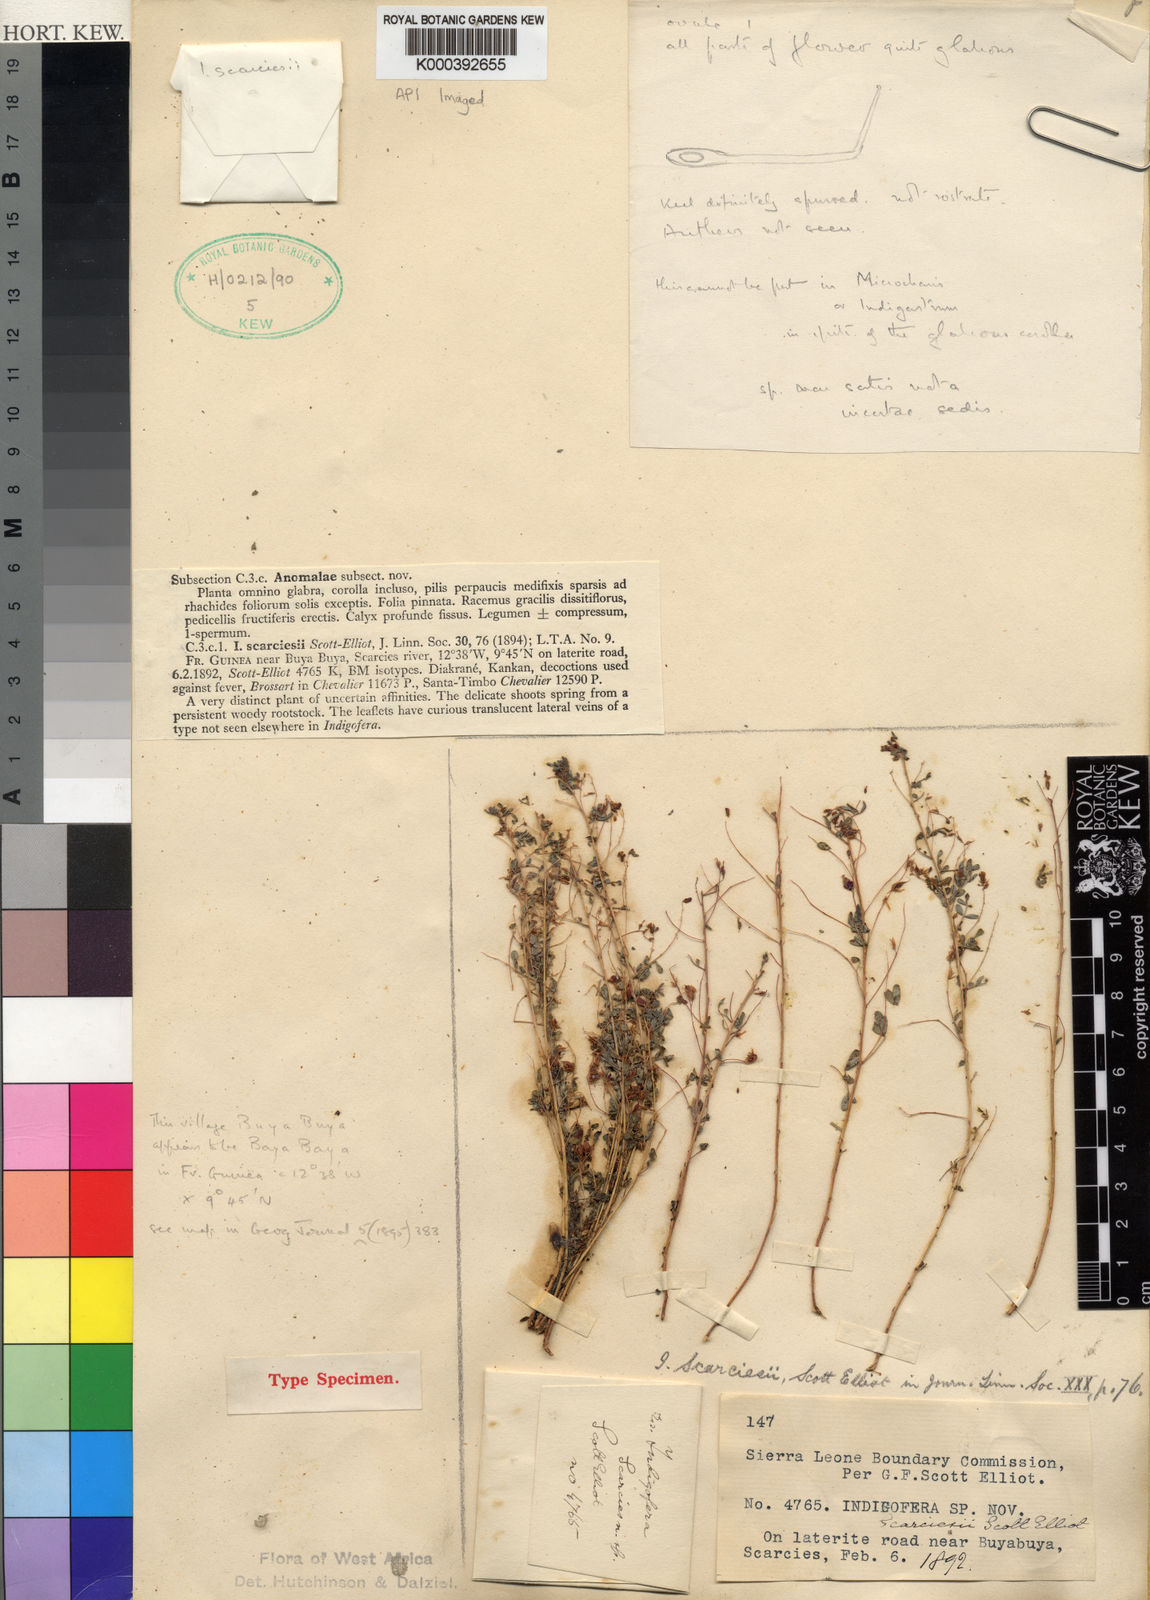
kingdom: Plantae
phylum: Tracheophyta
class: Magnoliopsida
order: Fabales
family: Fabaceae
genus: Indigofera
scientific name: Indigofera scarciesii
